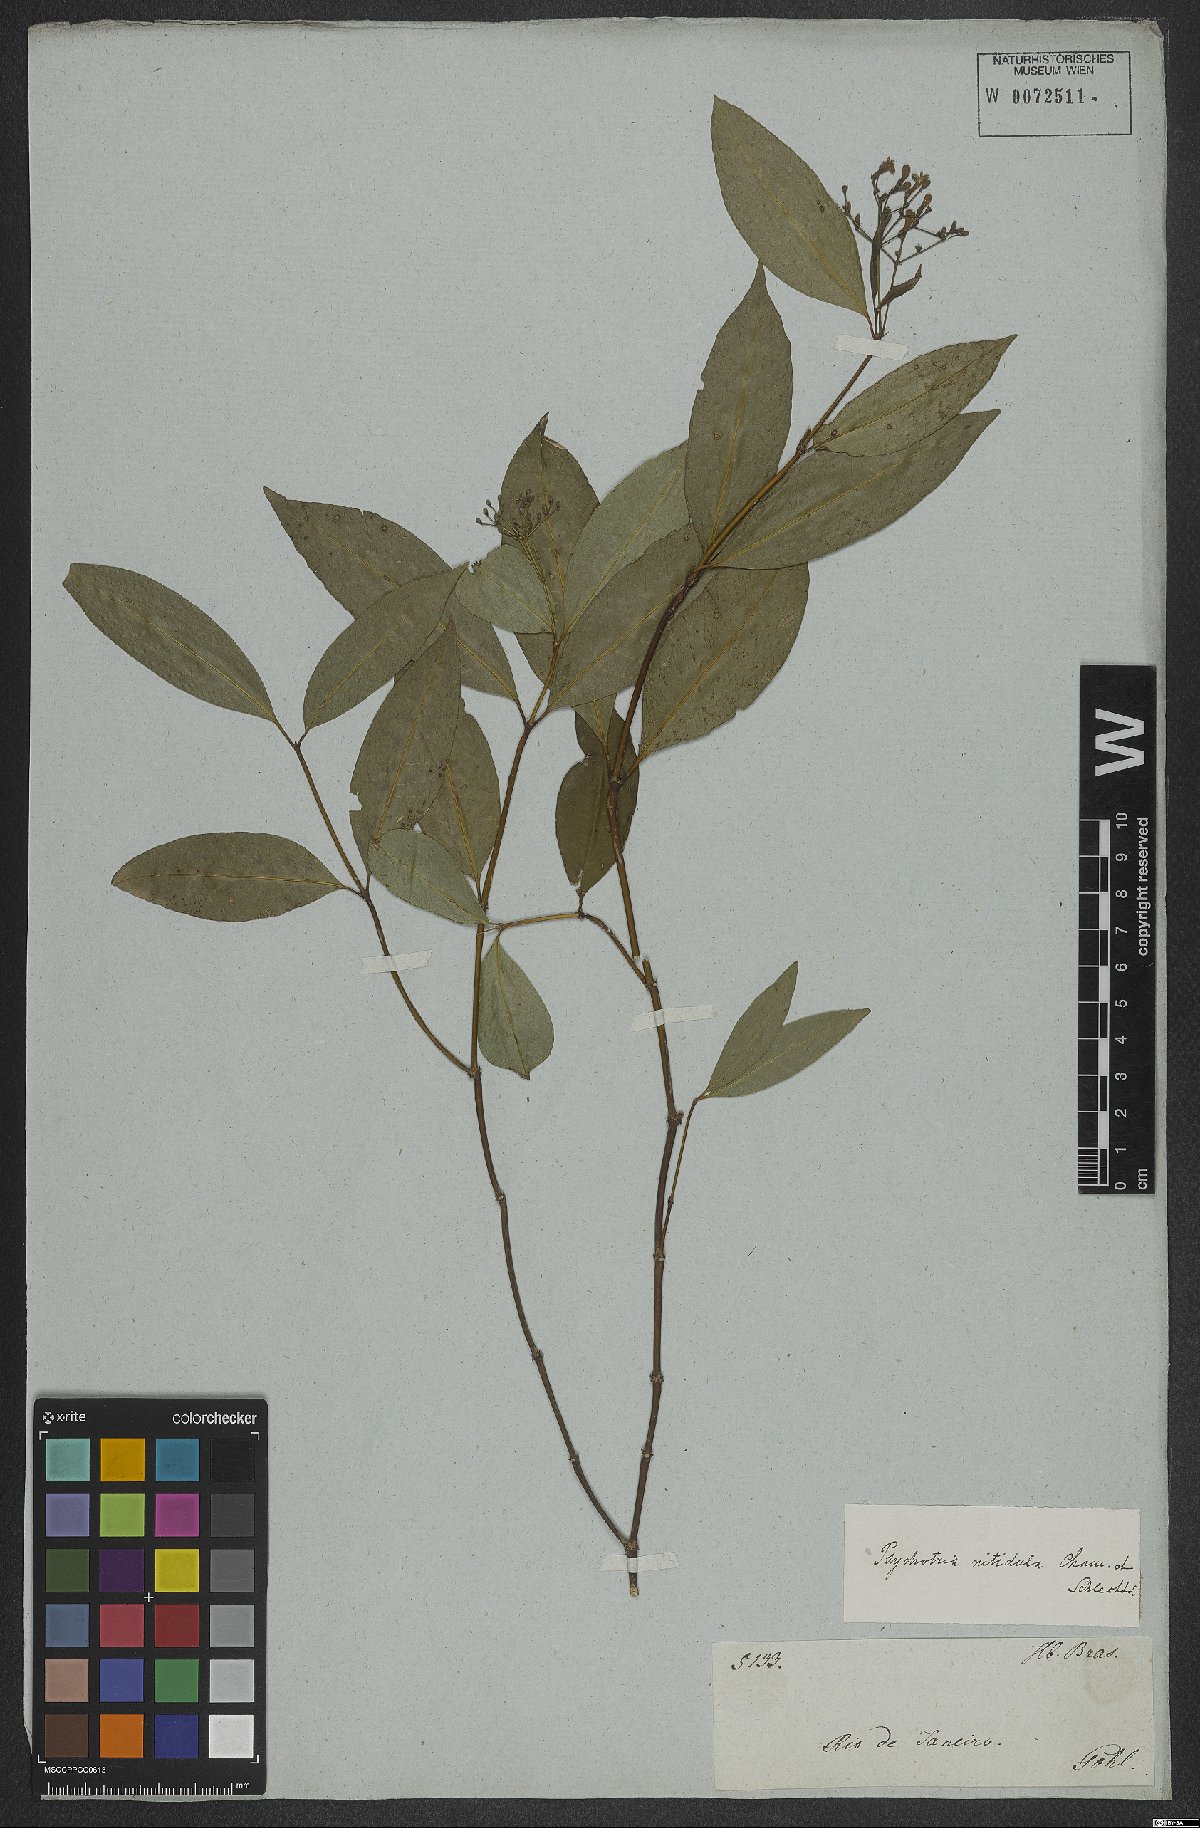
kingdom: Plantae
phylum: Tracheophyta
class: Magnoliopsida
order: Gentianales
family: Rubiaceae
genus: Psychotria
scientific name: Psychotria leiocarpa
